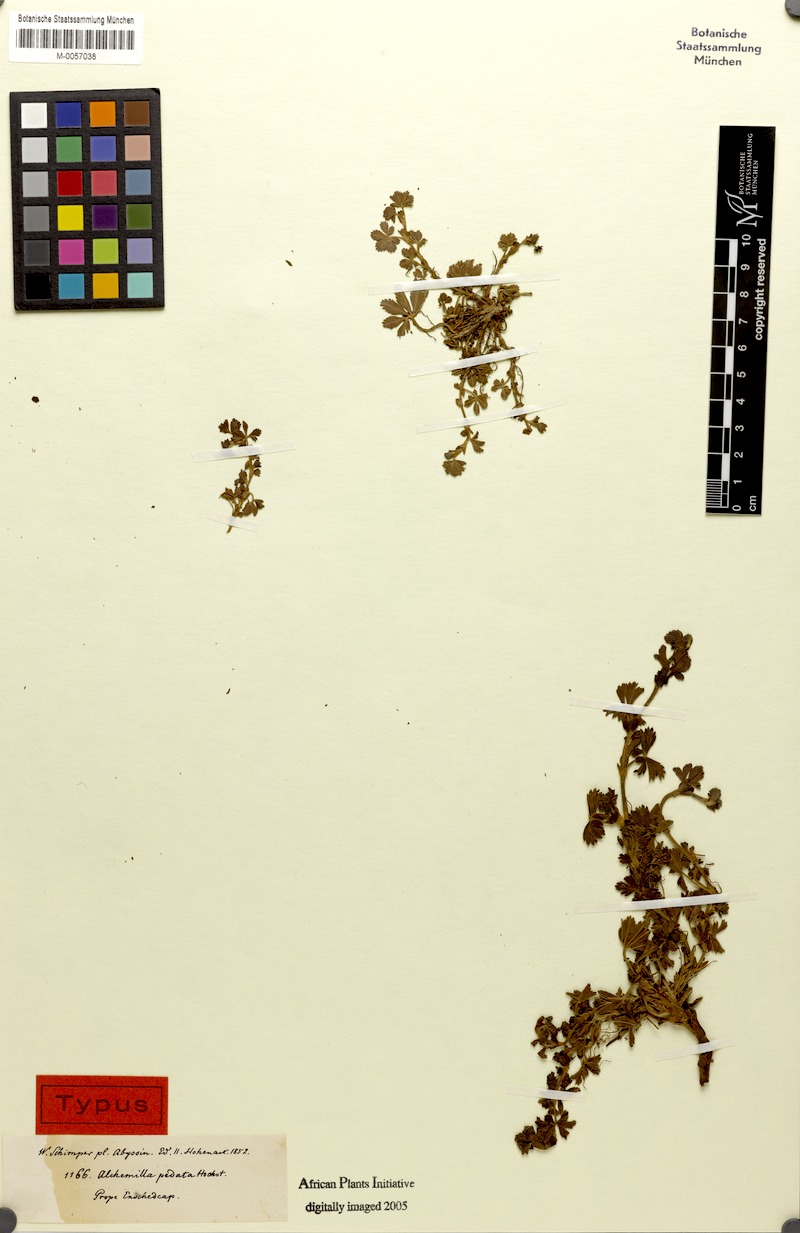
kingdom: Plantae
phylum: Tracheophyta
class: Magnoliopsida
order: Rosales
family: Rosaceae
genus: Alchemilla
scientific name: Alchemilla pedata
